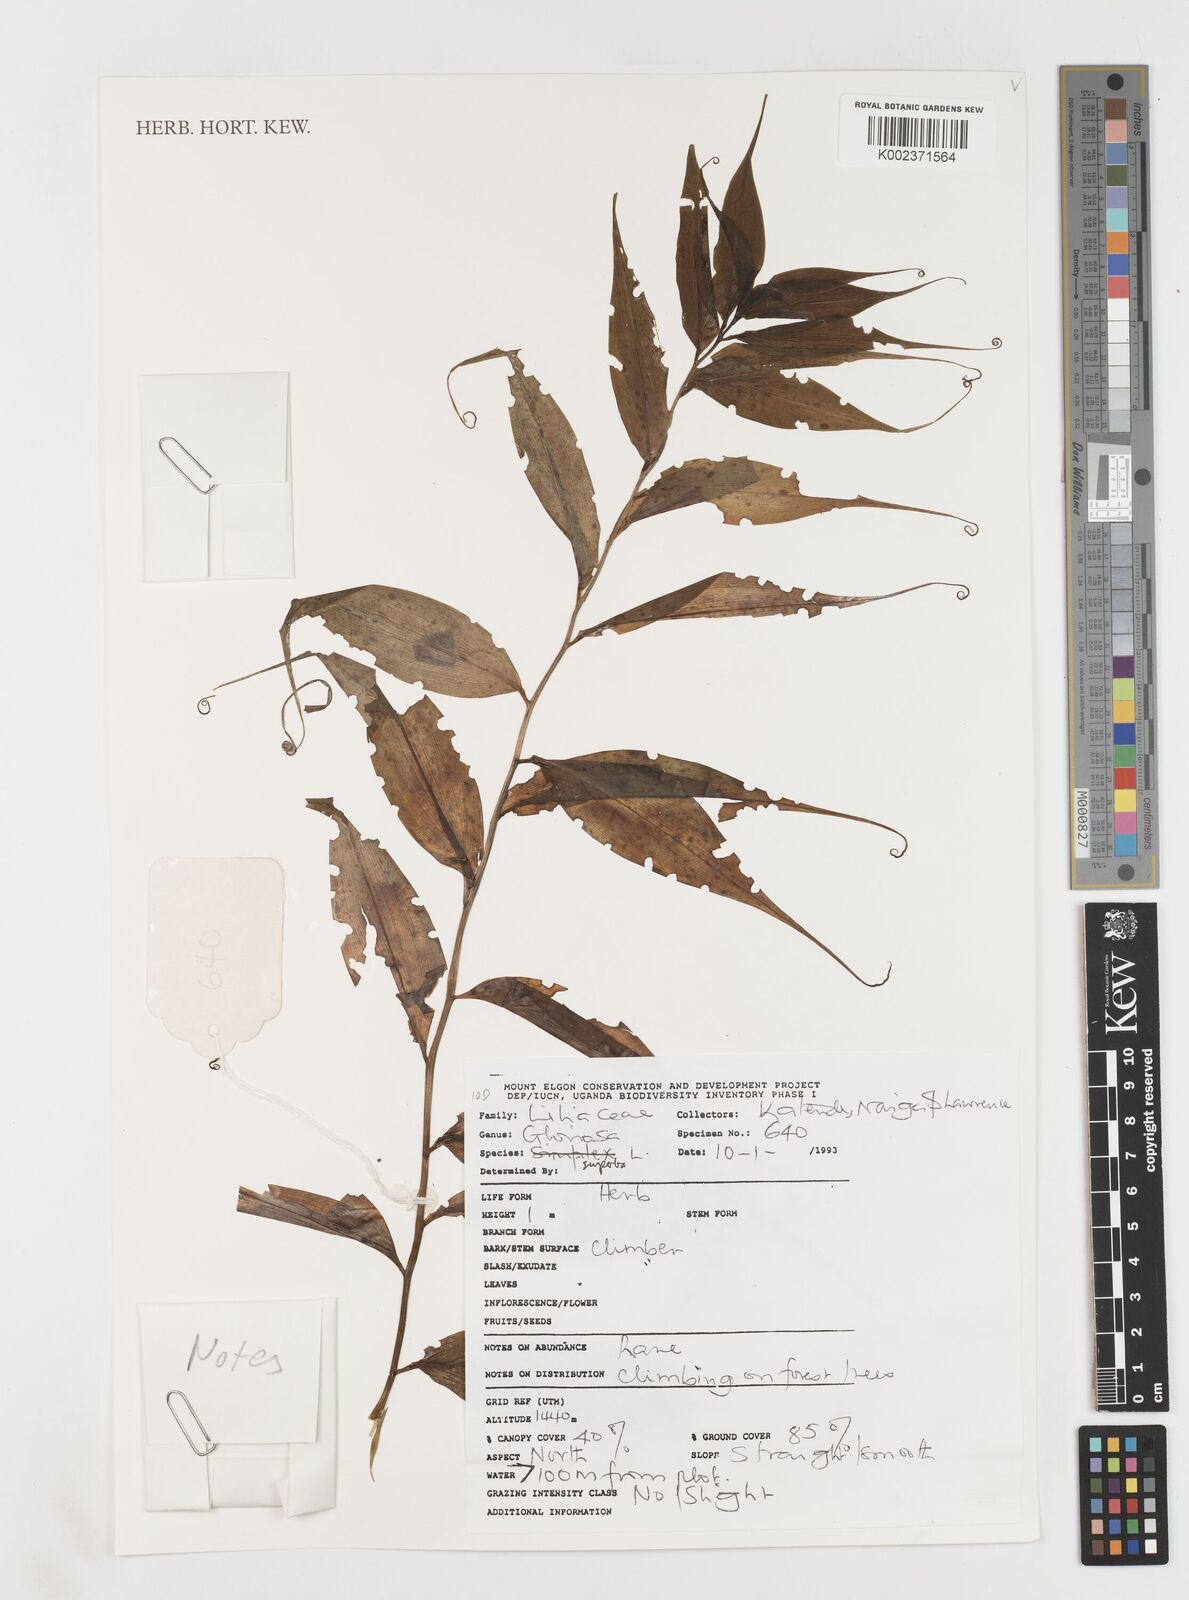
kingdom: Plantae
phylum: Tracheophyta
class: Liliopsida
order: Liliales
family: Colchicaceae
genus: Gloriosa
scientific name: Gloriosa simplex
